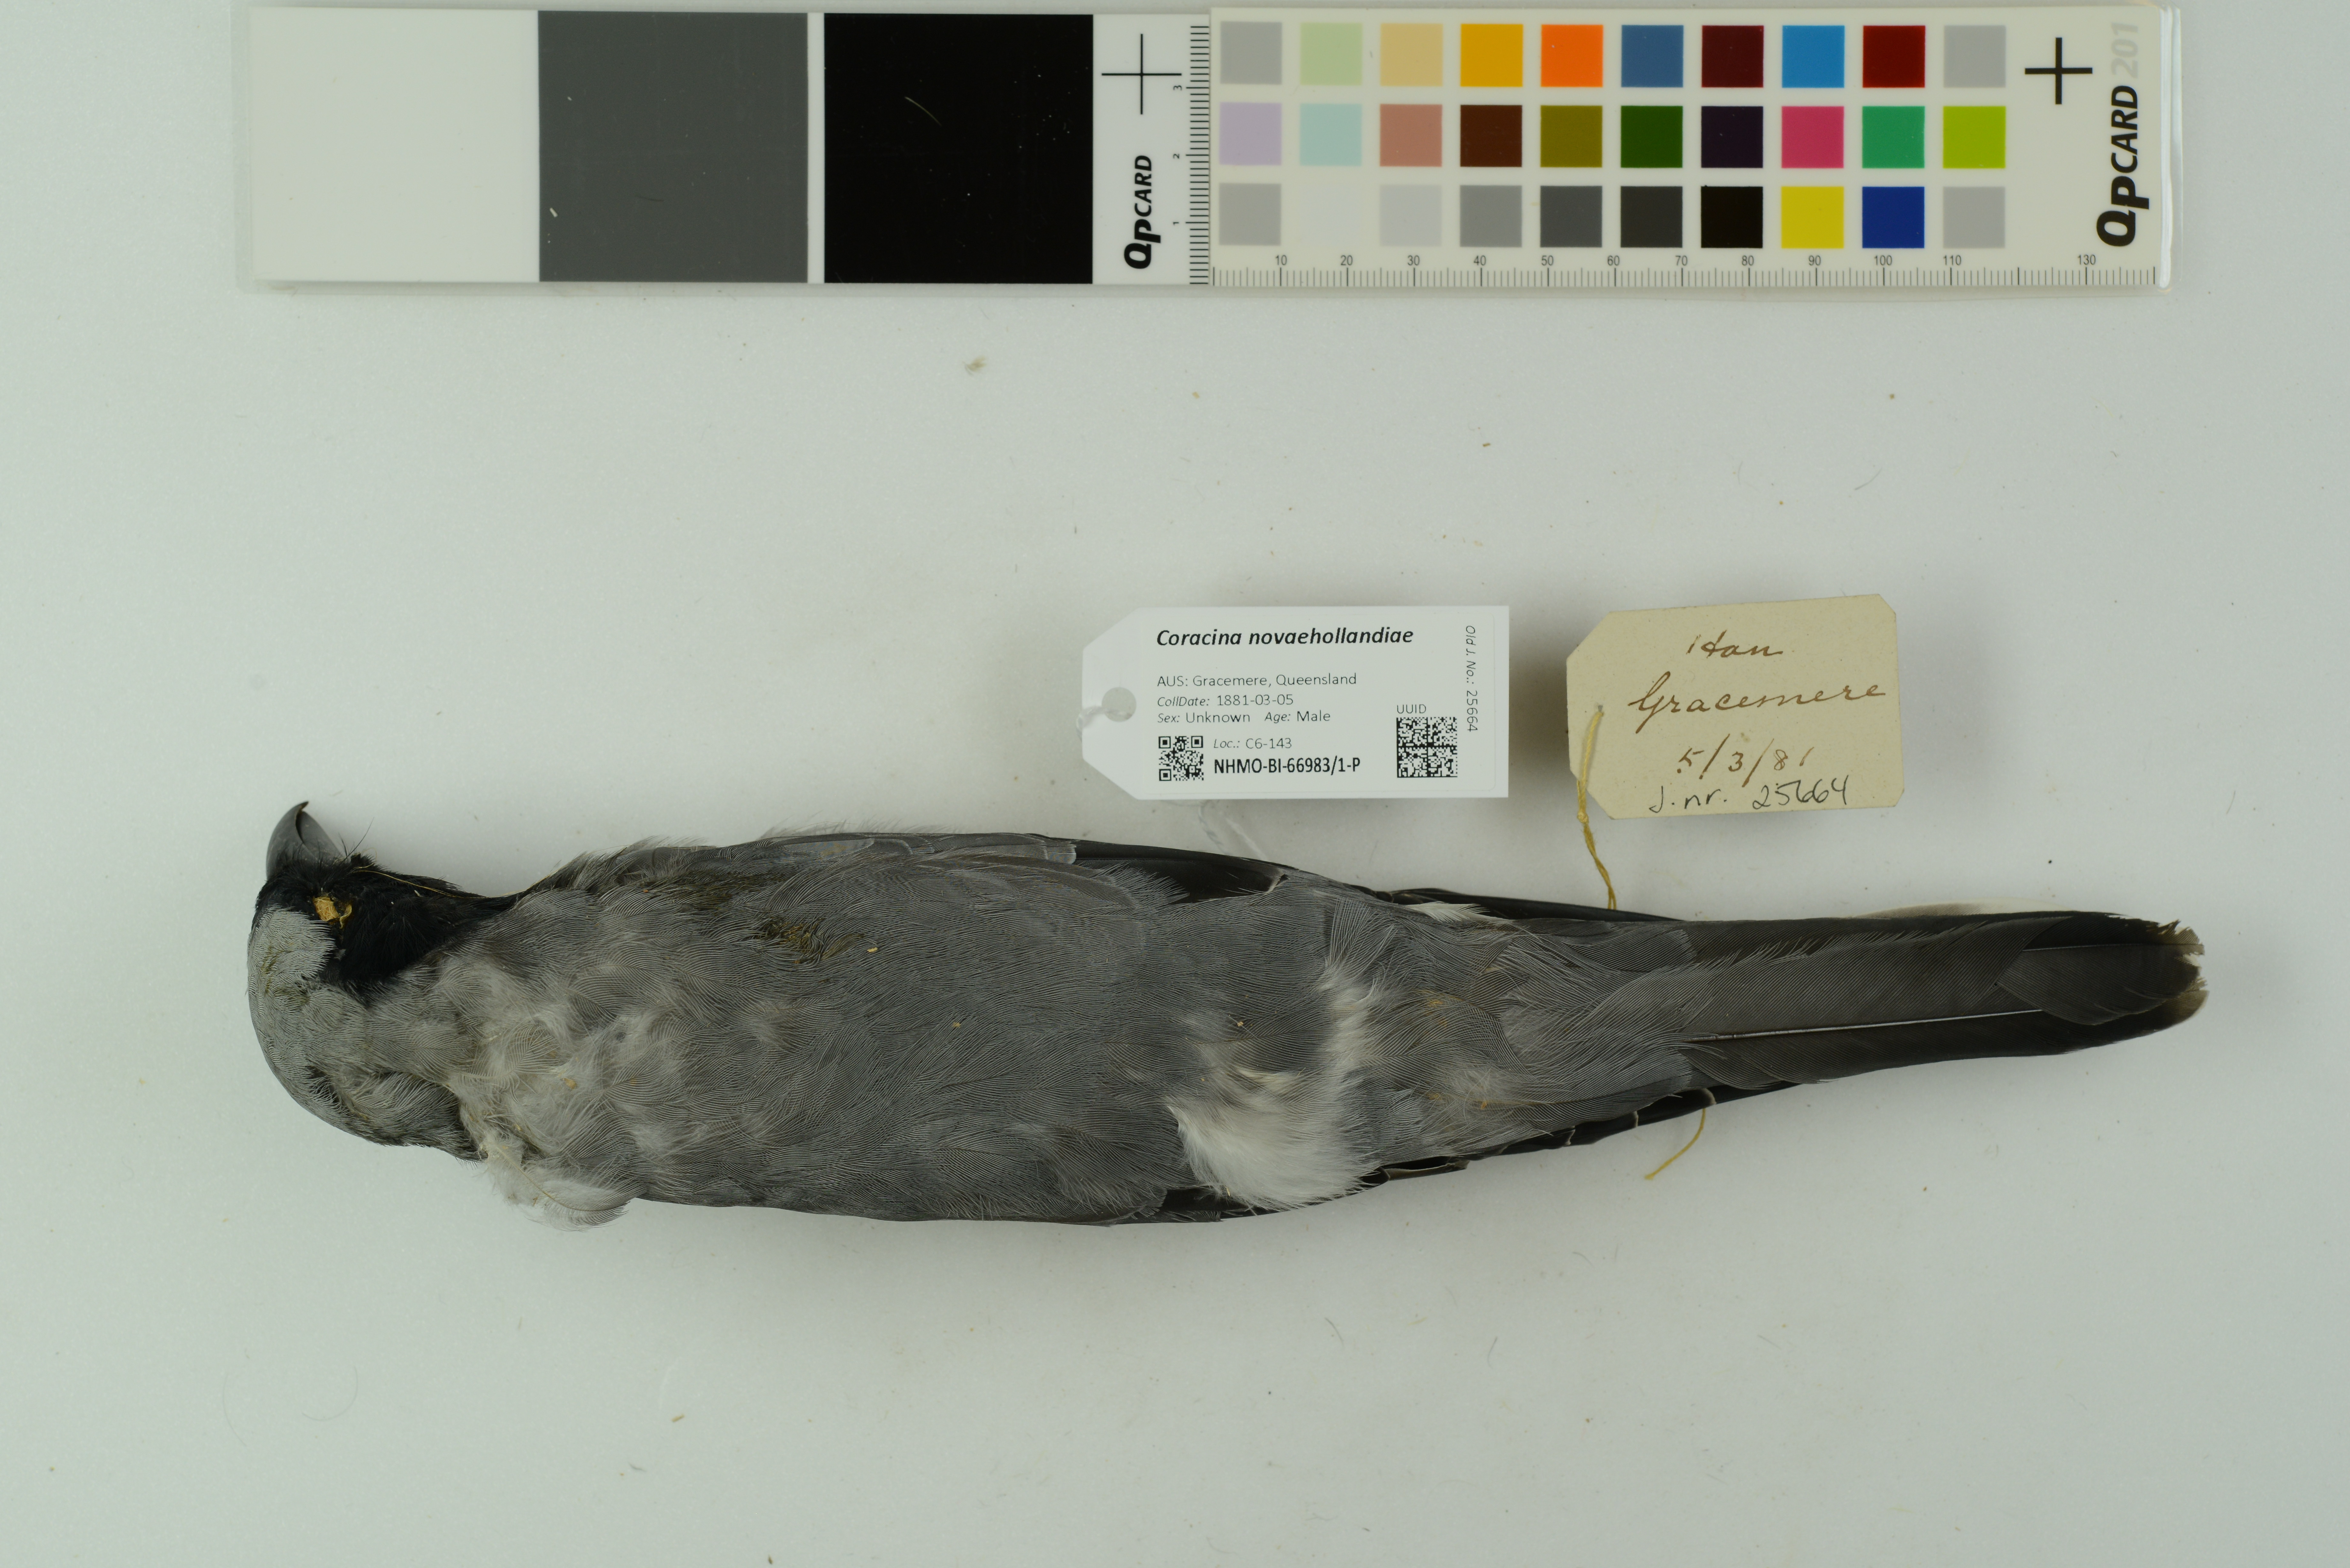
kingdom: Animalia
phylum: Chordata
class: Aves
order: Passeriformes
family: Campephagidae
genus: Coracina
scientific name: Coracina novaehollandiae
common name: Black-faced cuckooshrike
